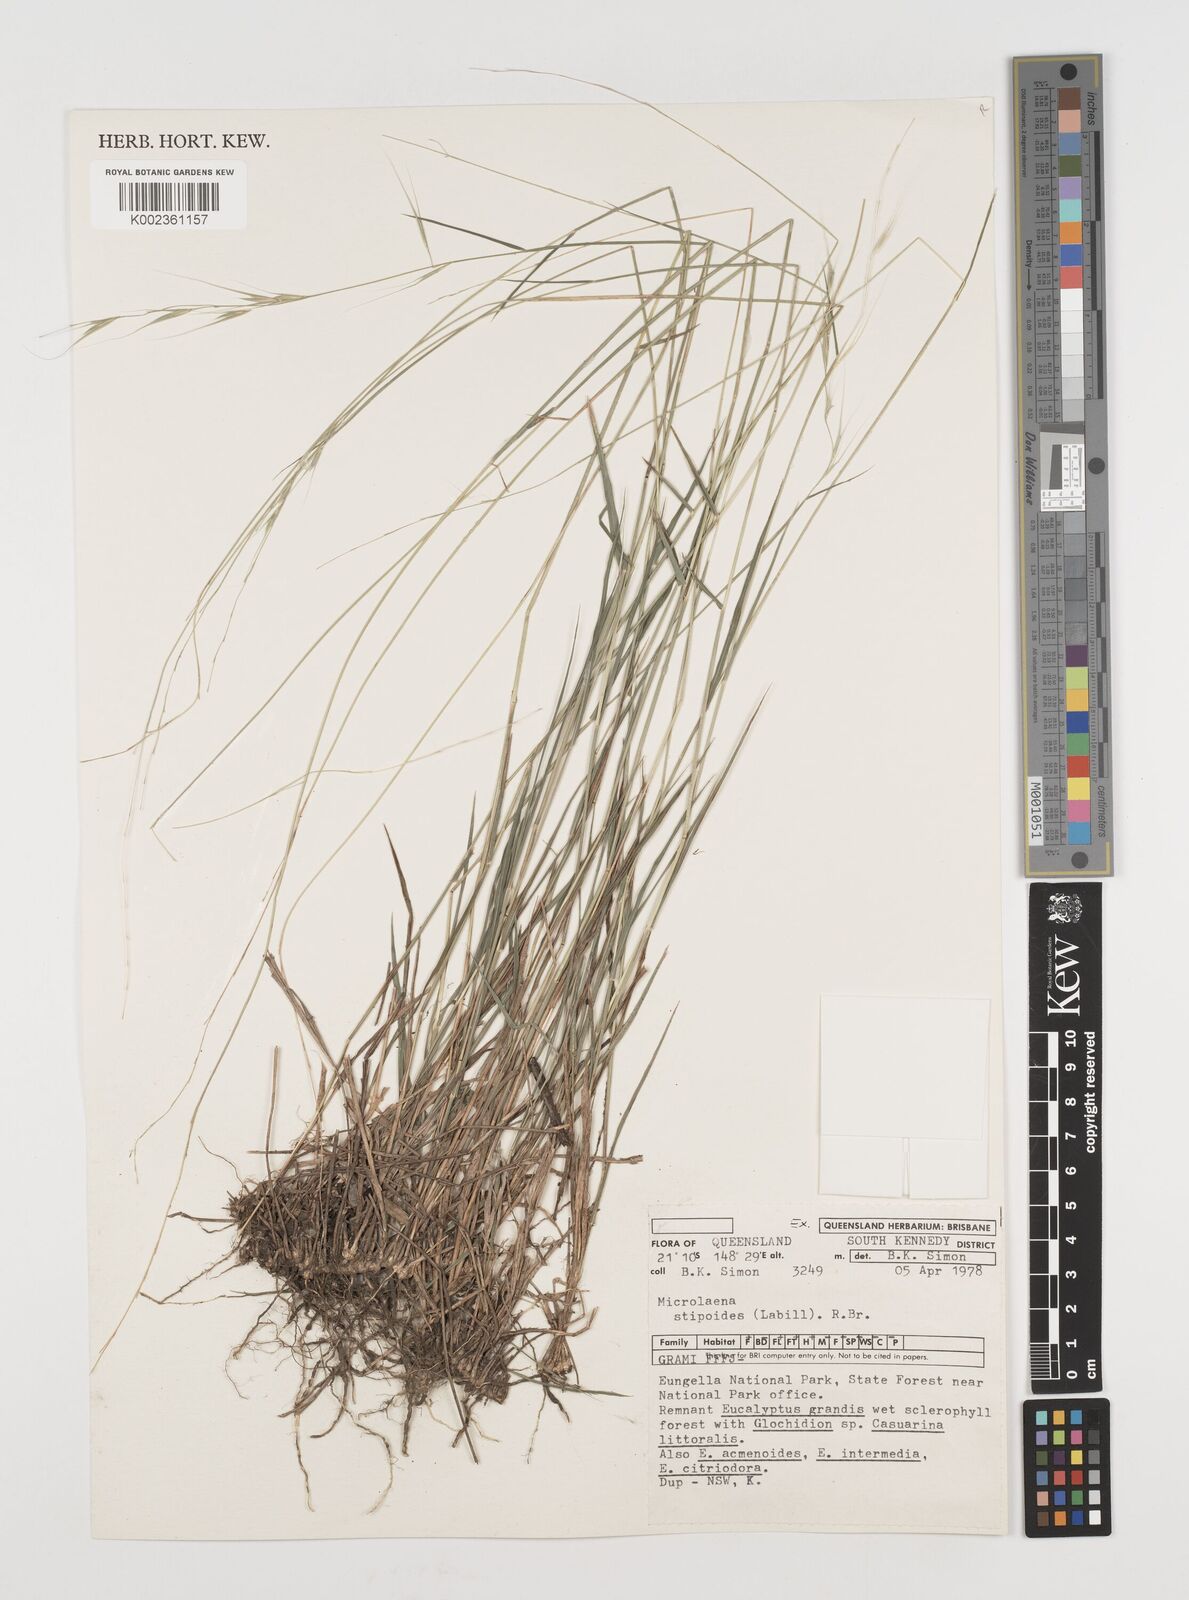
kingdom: Plantae
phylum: Tracheophyta
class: Liliopsida
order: Poales
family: Poaceae
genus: Microlaena
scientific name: Microlaena stipoides
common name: Meadow ricegrass
